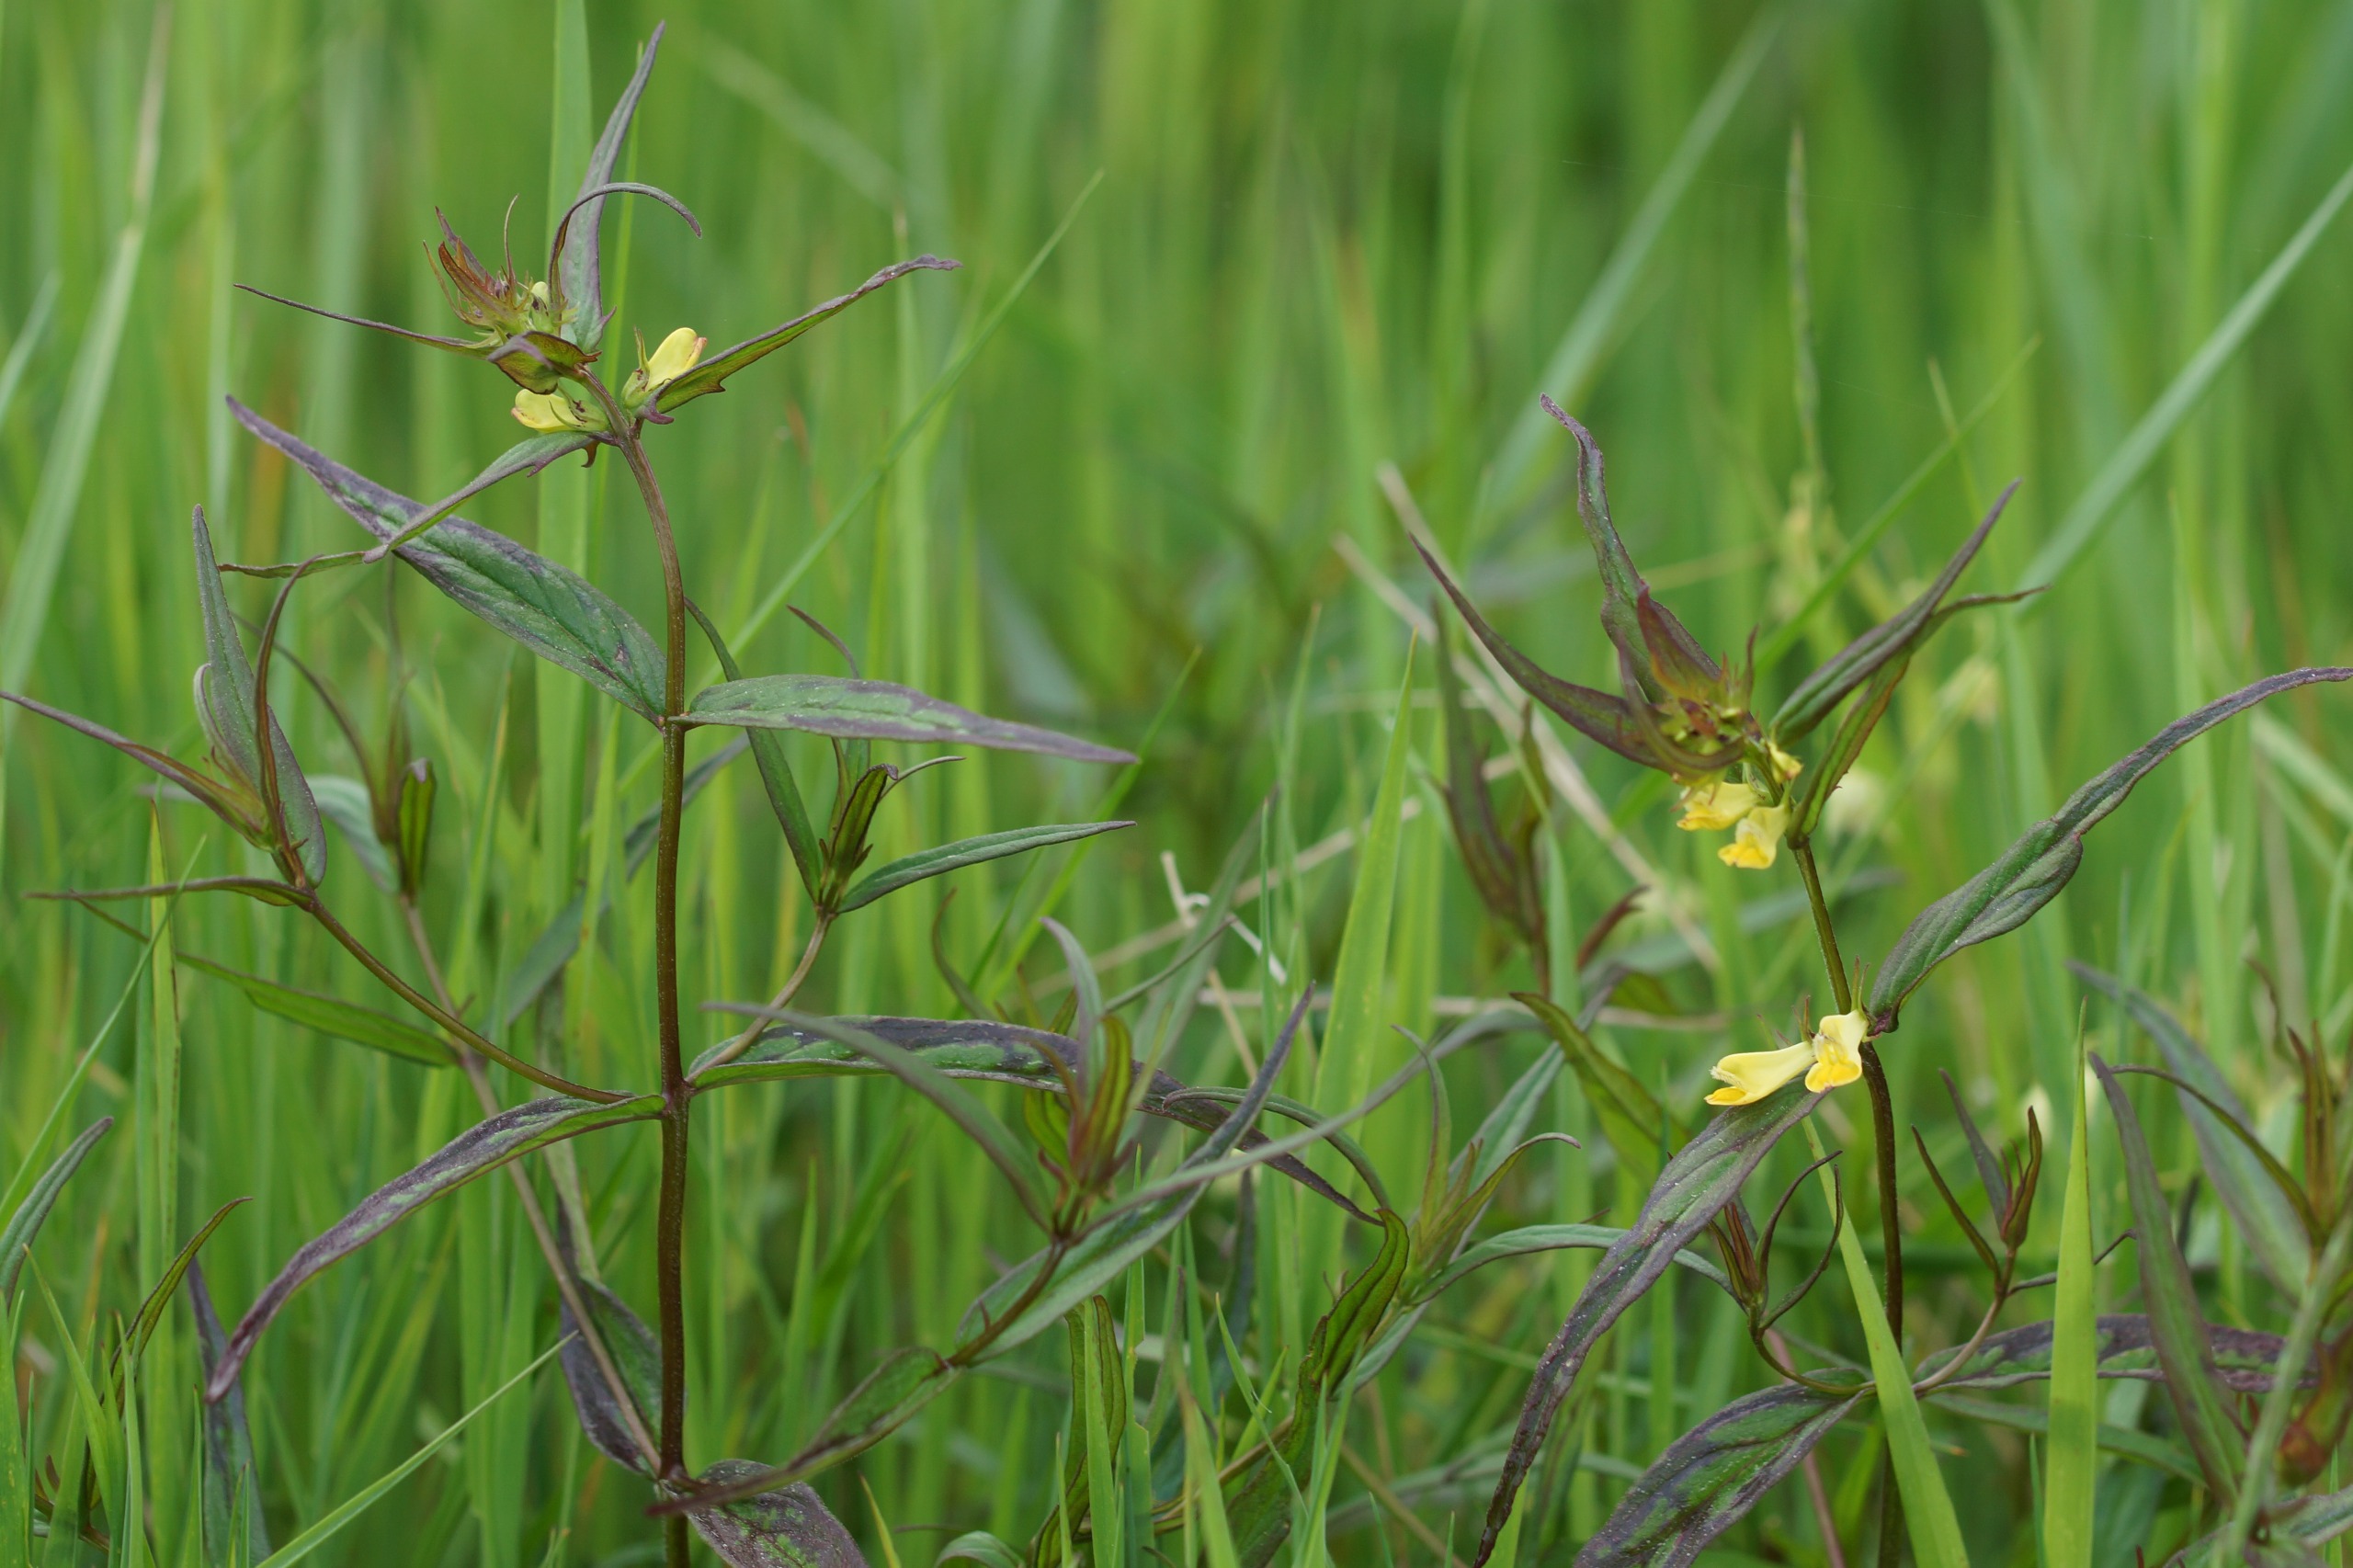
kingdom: Plantae
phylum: Tracheophyta
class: Magnoliopsida
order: Lamiales
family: Orobanchaceae
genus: Melampyrum
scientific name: Melampyrum pratense
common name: Almindelig kohvede
